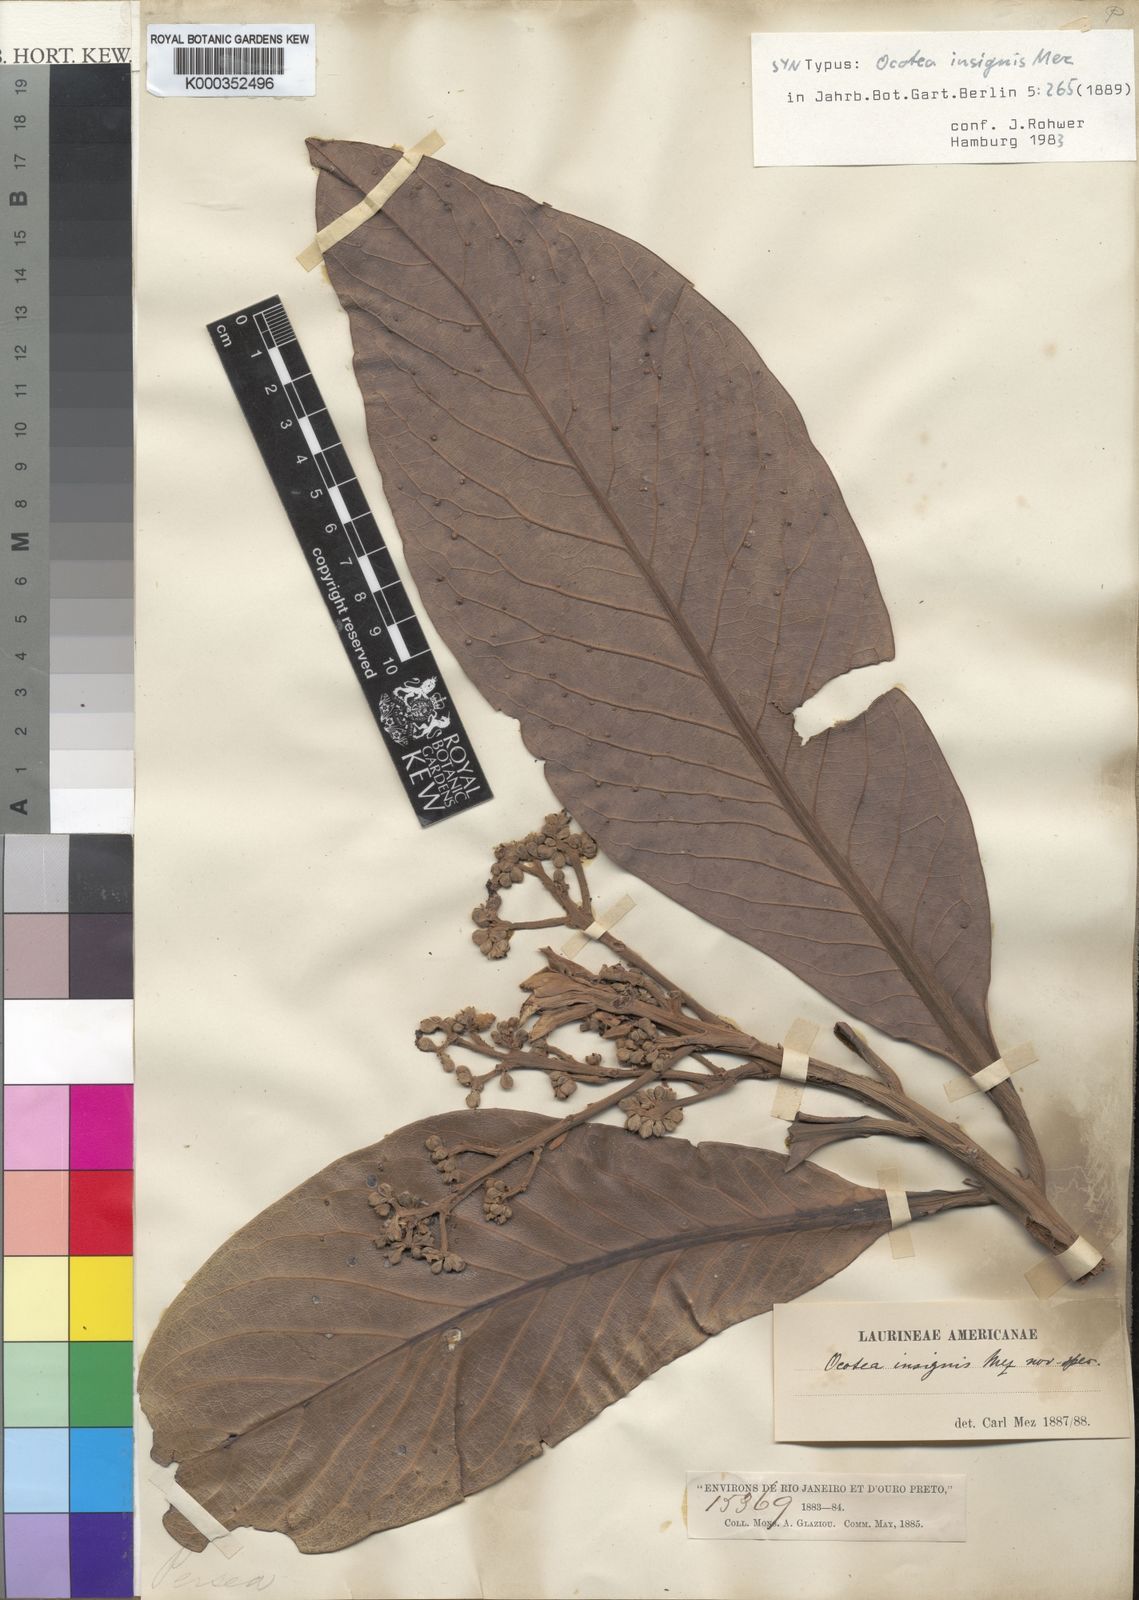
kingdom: Plantae
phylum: Tracheophyta
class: Magnoliopsida
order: Laurales
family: Lauraceae
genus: Ocotea
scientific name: Ocotea insignis
